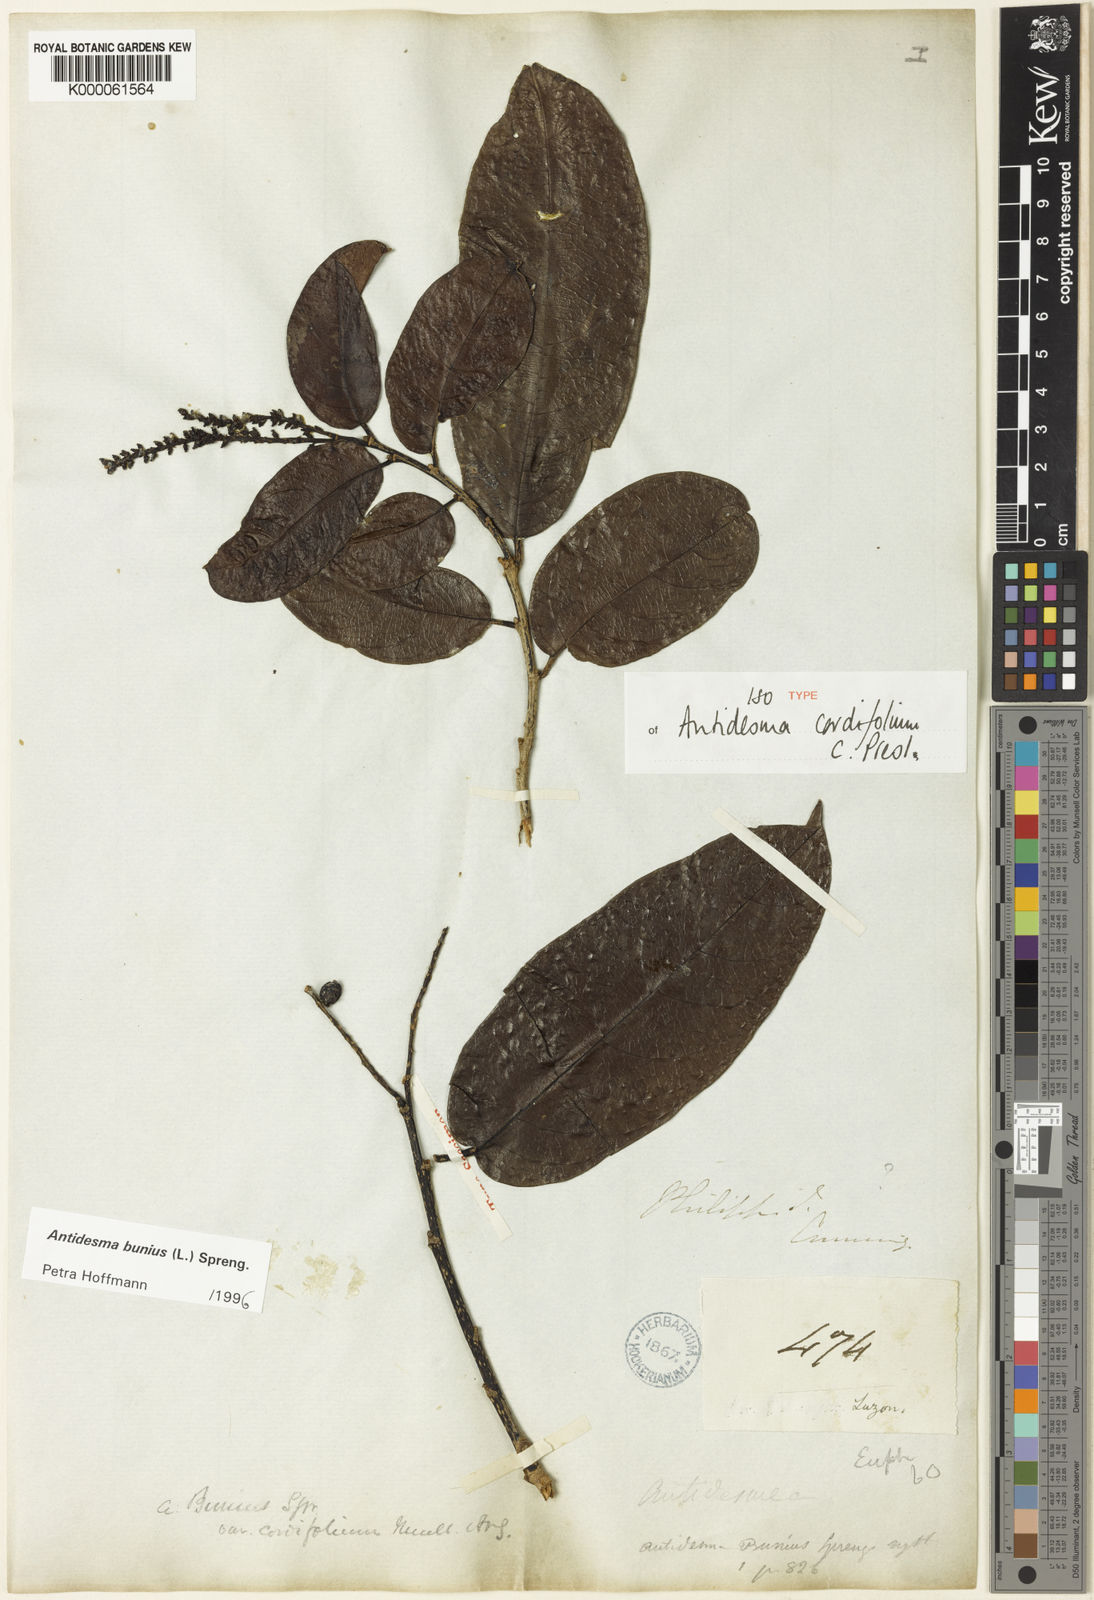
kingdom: Plantae
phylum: Tracheophyta
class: Magnoliopsida
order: Malpighiales
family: Phyllanthaceae
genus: Antidesma
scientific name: Antidesma bunius
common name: Chinese-laurel
